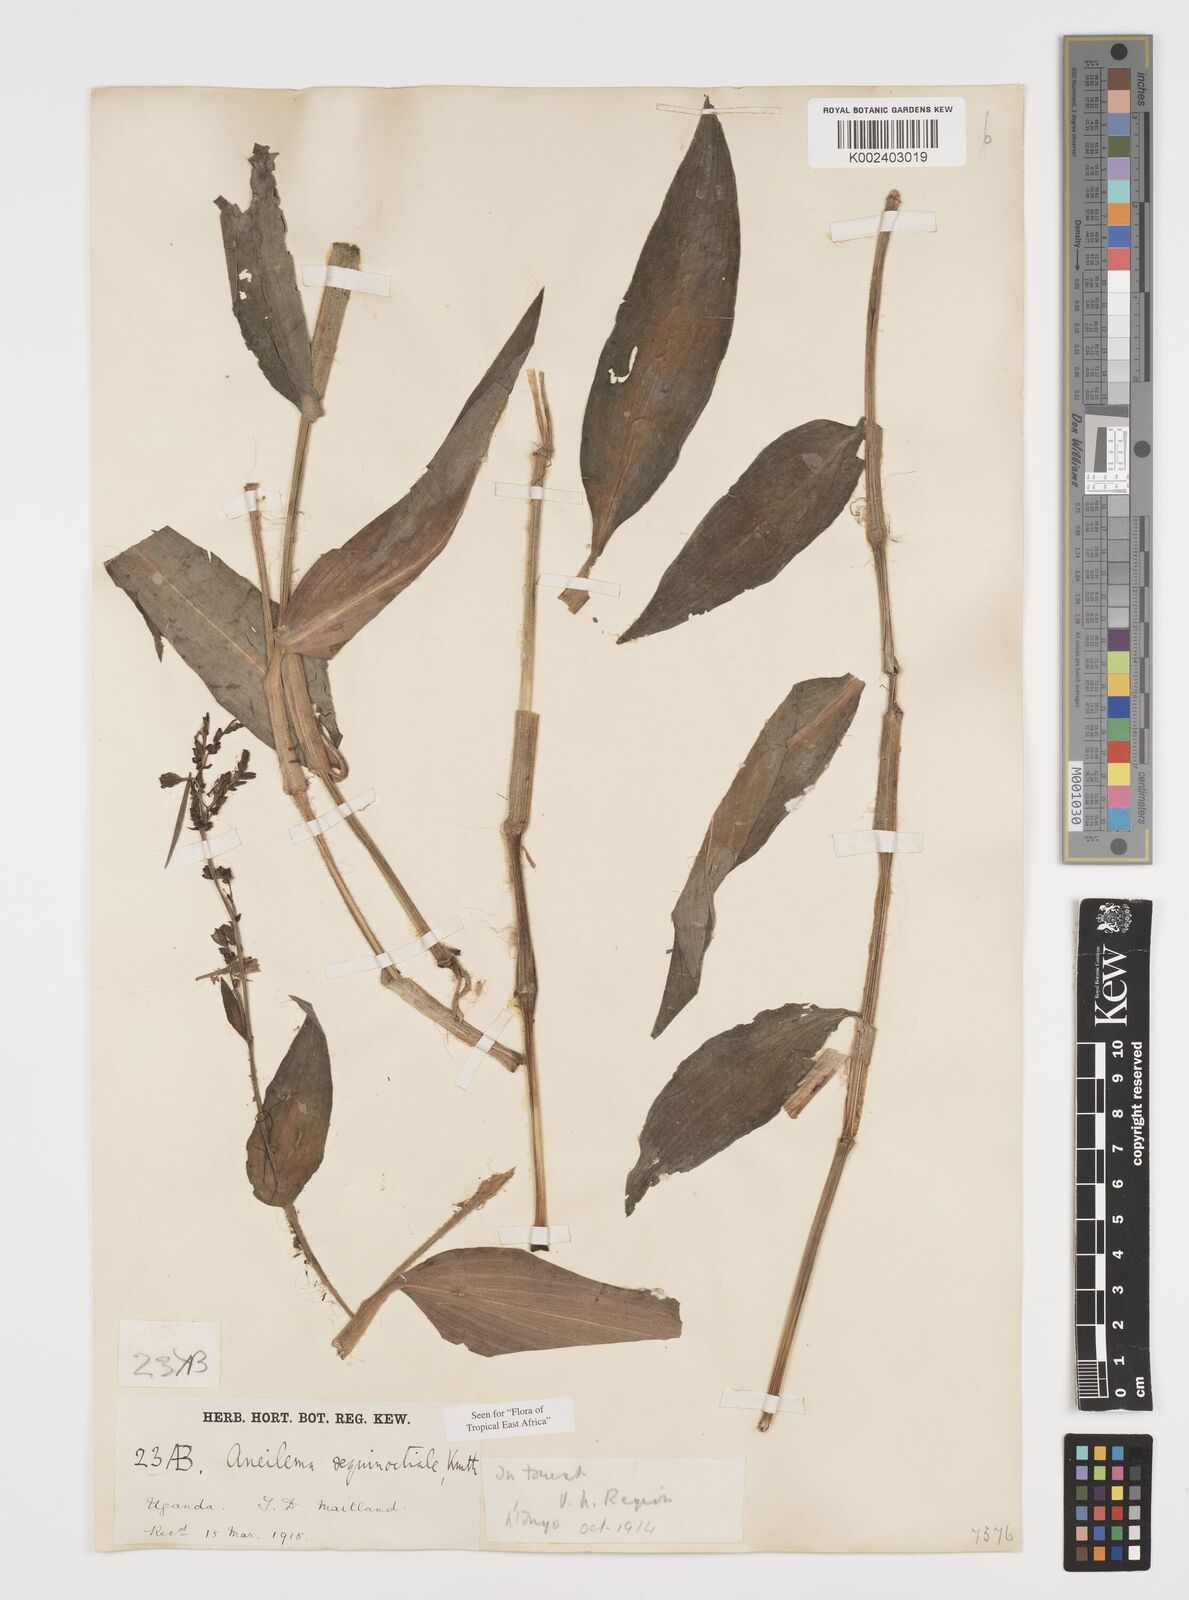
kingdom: Plantae
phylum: Tracheophyta
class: Liliopsida
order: Commelinales
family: Commelinaceae
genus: Aneilema
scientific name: Aneilema aequinoctiale
